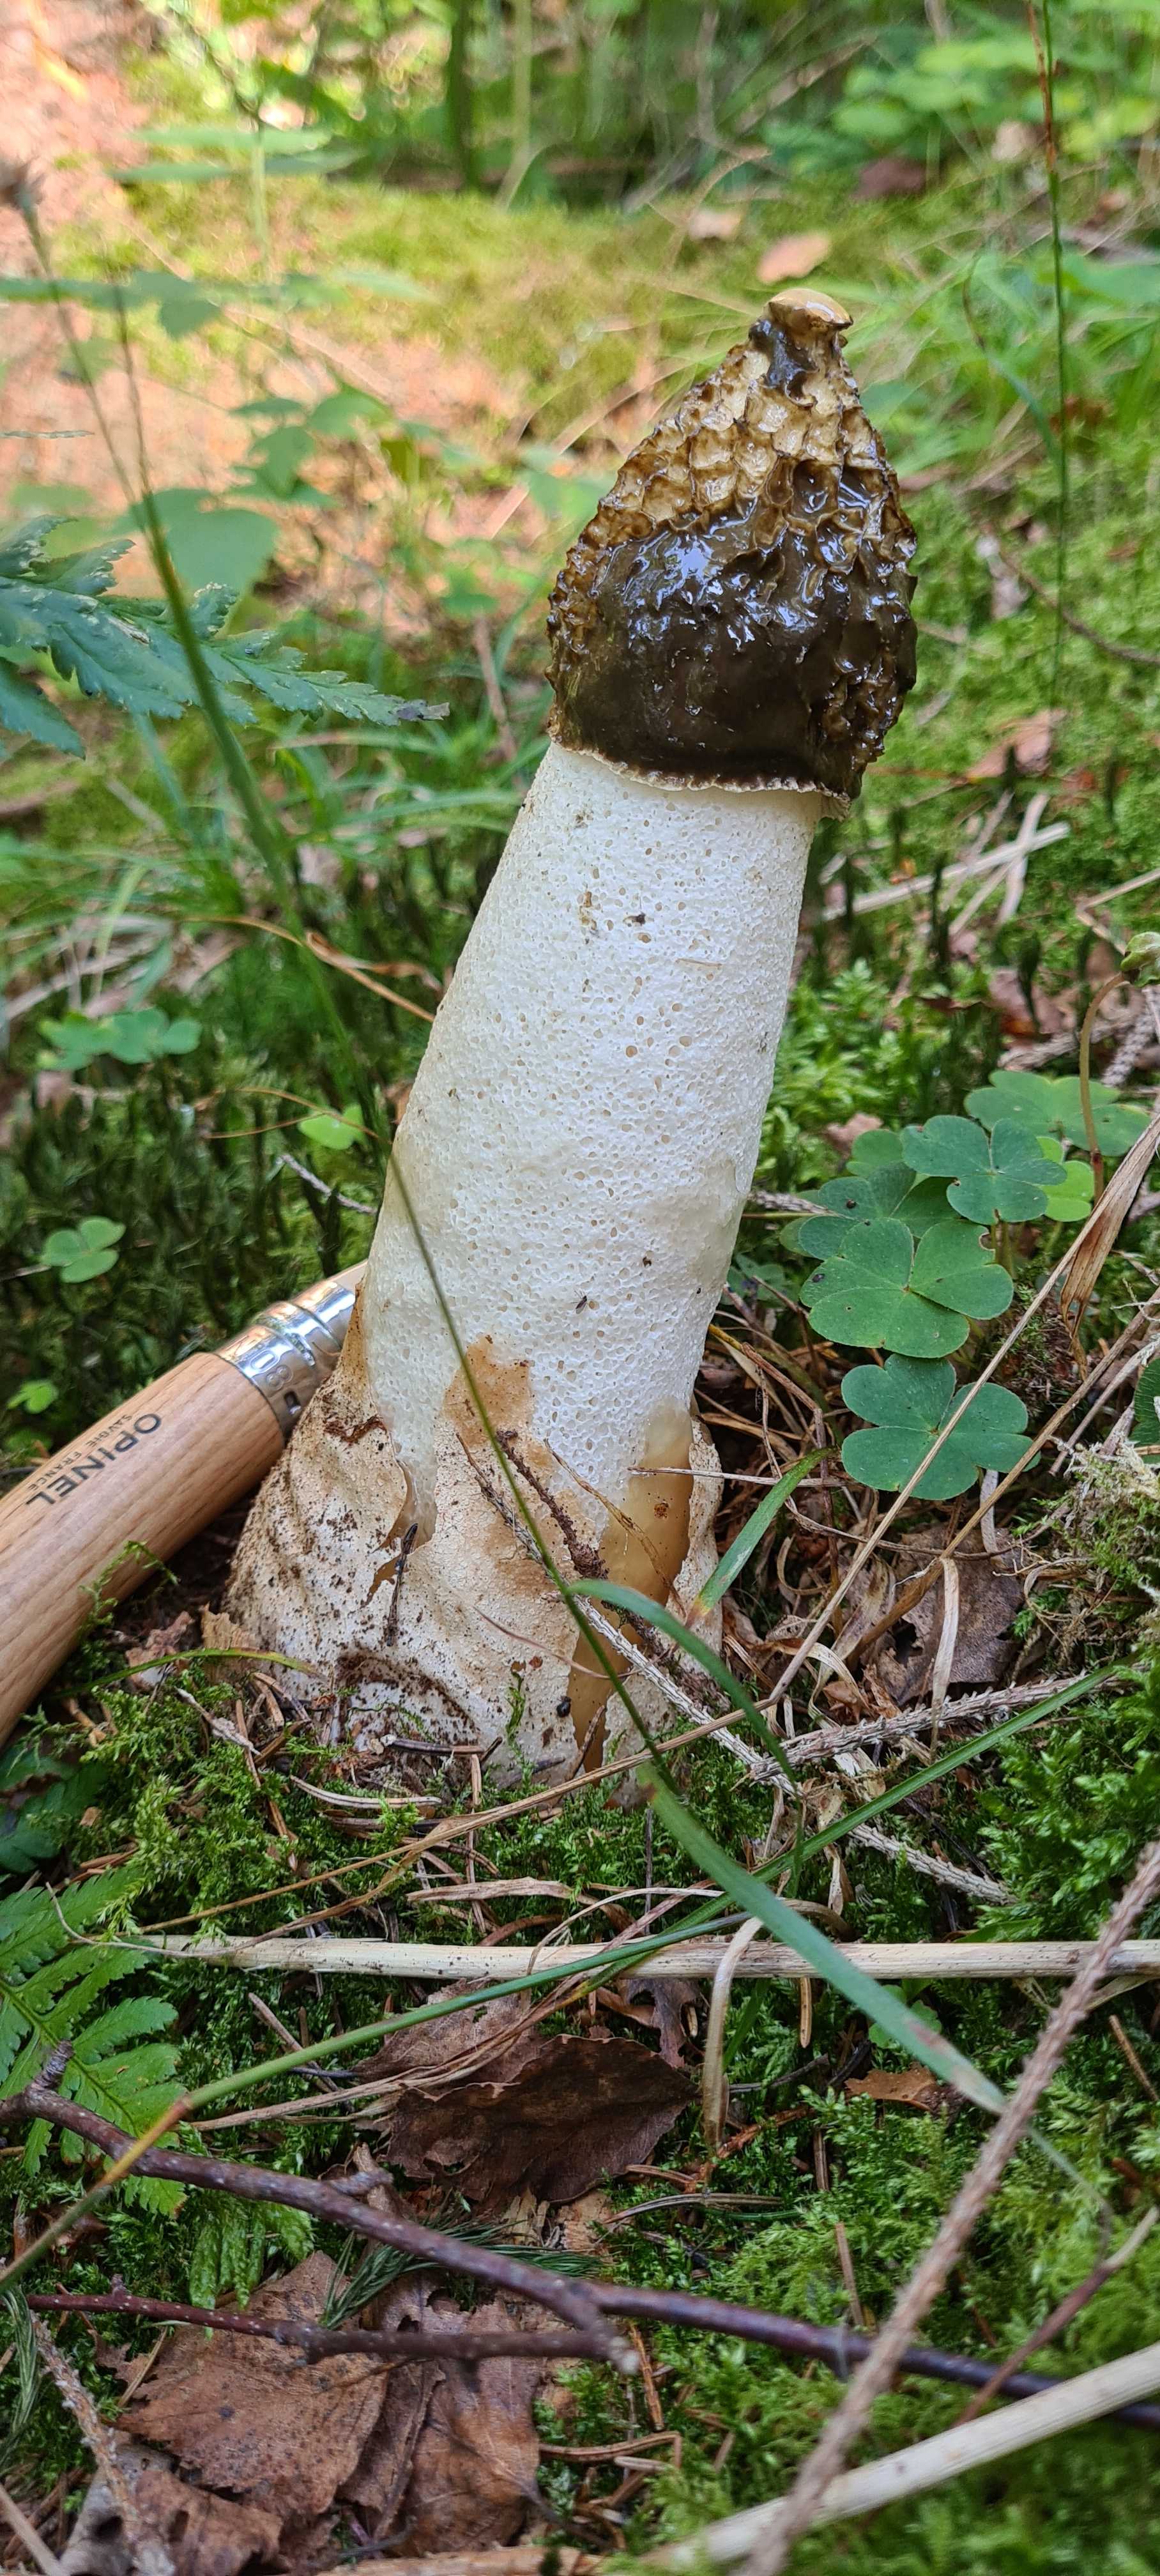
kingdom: Fungi
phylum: Basidiomycota
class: Agaricomycetes
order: Phallales
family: Phallaceae
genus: Phallus
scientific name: Phallus impudicus
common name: almindelig stinksvamp
